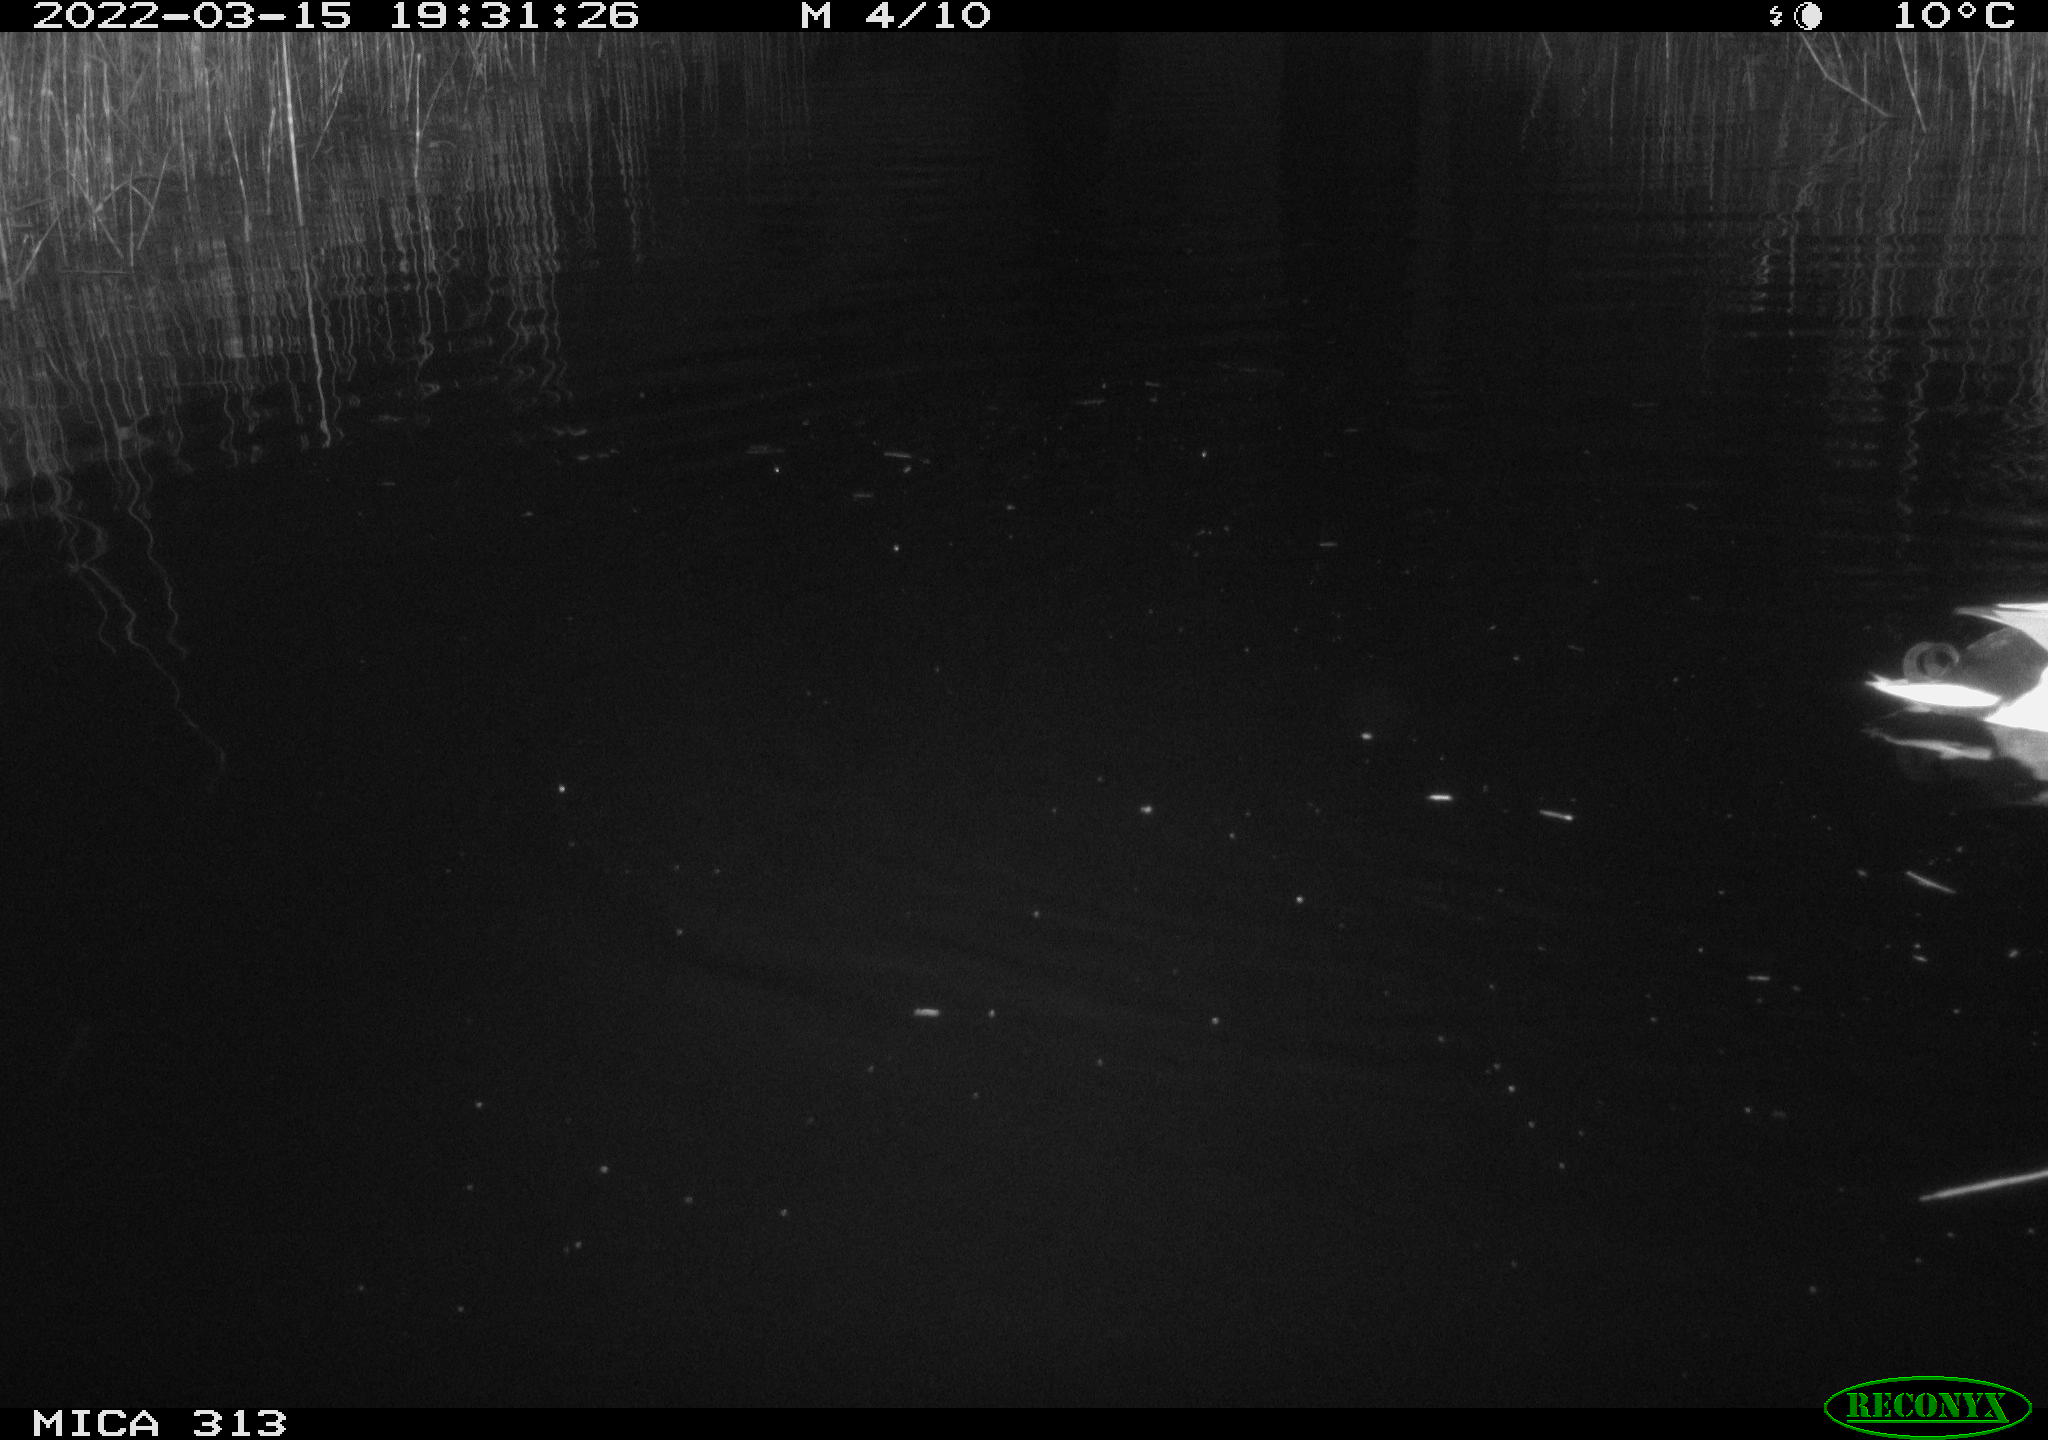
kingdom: Animalia
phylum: Chordata
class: Aves
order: Anseriformes
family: Anatidae
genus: Anas
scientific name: Anas platyrhynchos
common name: Mallard
